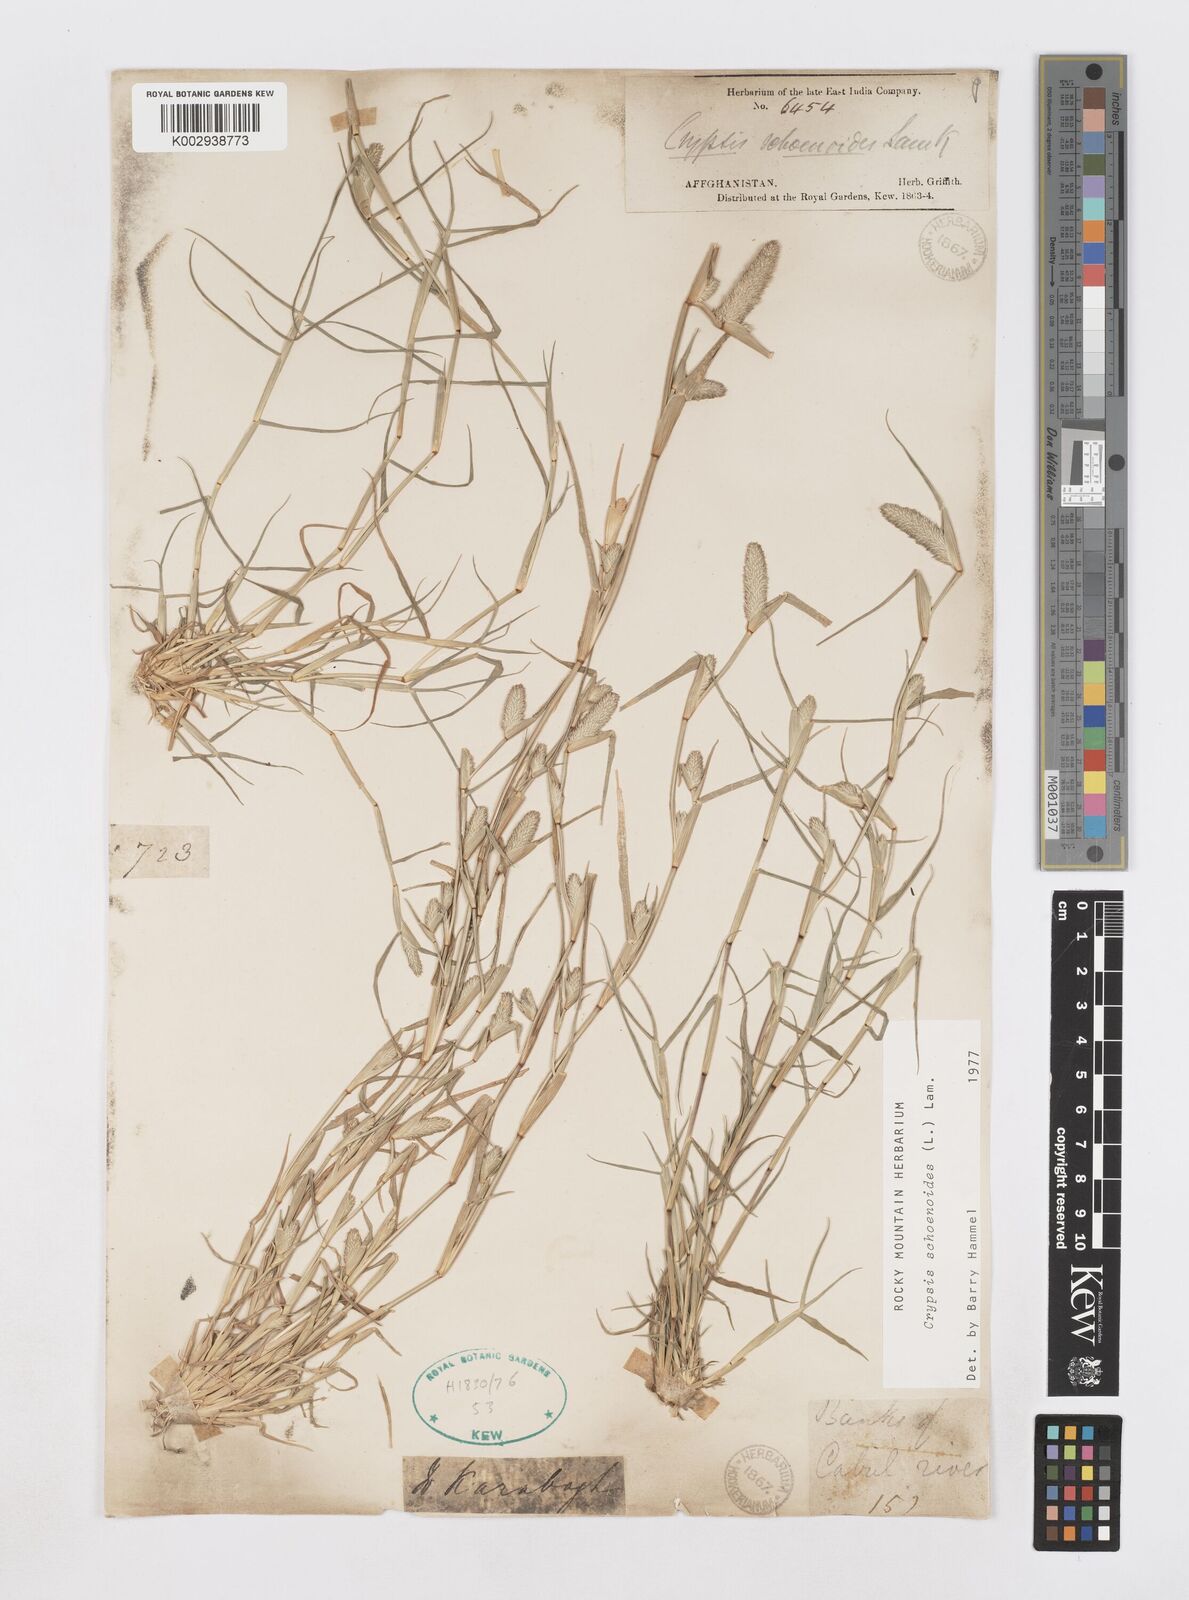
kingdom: Plantae
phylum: Tracheophyta
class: Liliopsida
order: Poales
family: Poaceae
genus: Sporobolus
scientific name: Sporobolus schoenoides
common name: Rush-like timothy
